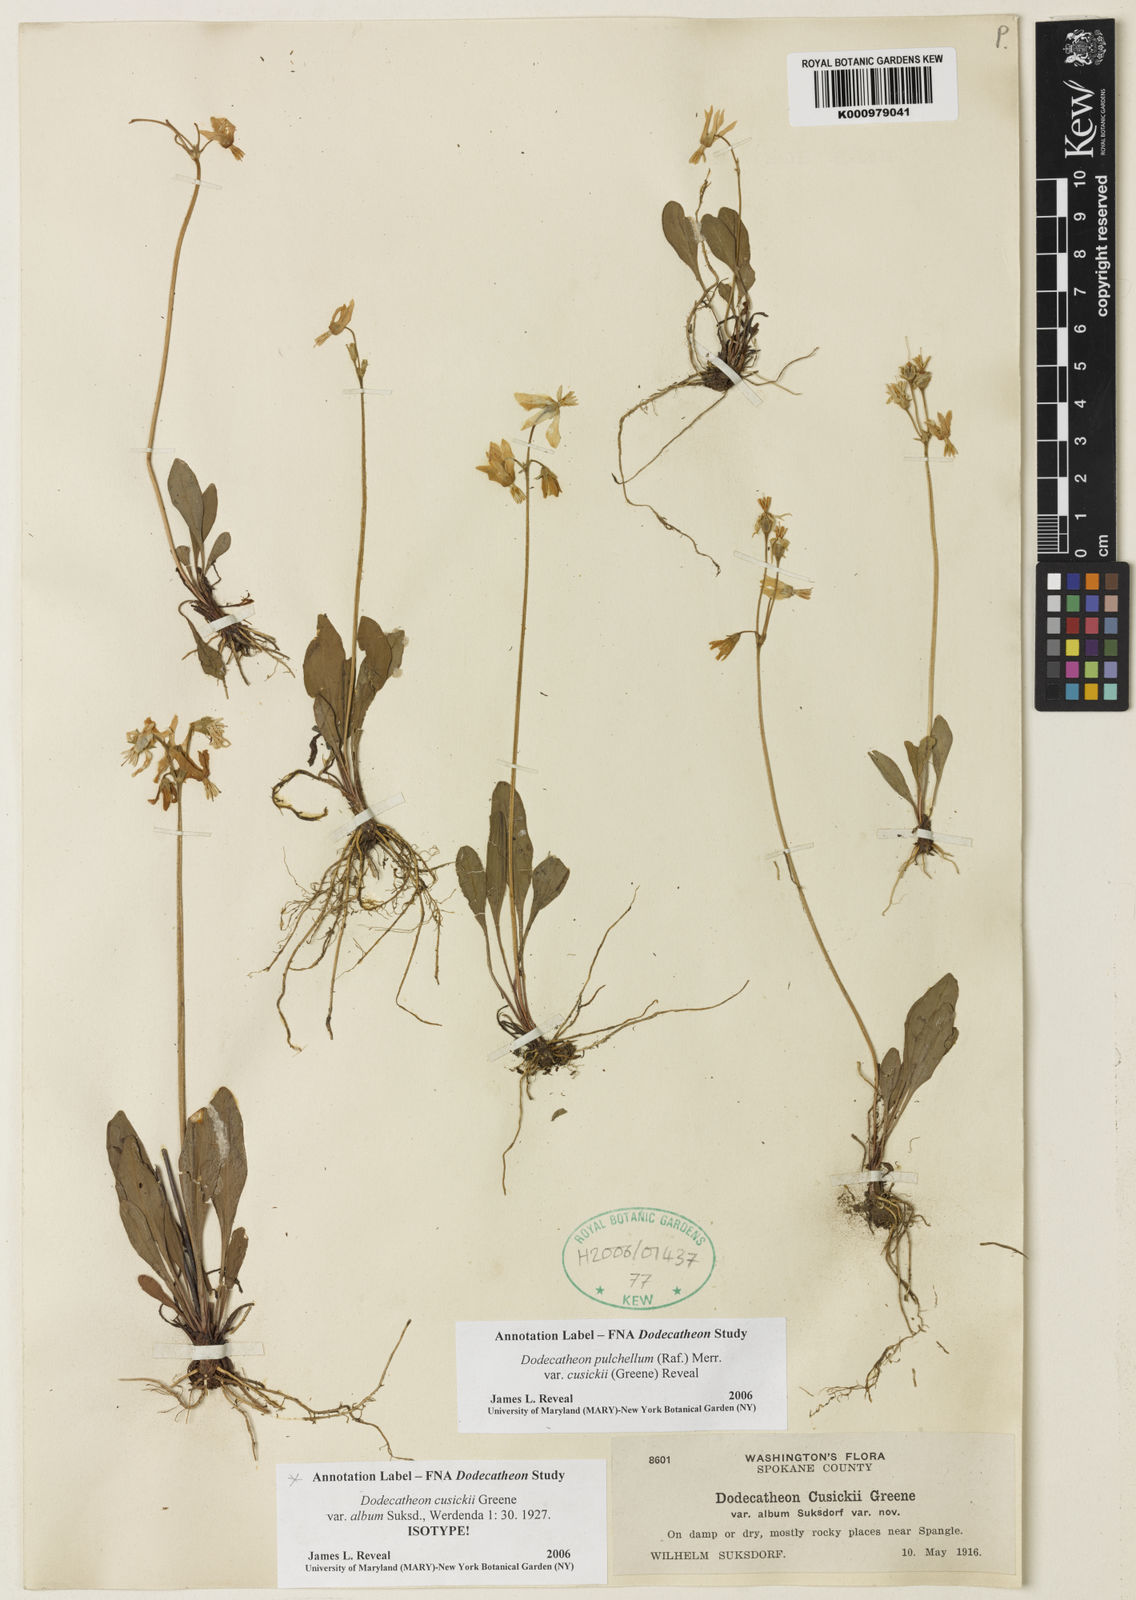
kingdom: Plantae
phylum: Tracheophyta
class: Magnoliopsida
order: Ericales
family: Primulaceae
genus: Dodecatheon
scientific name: Dodecatheon pulchellum
